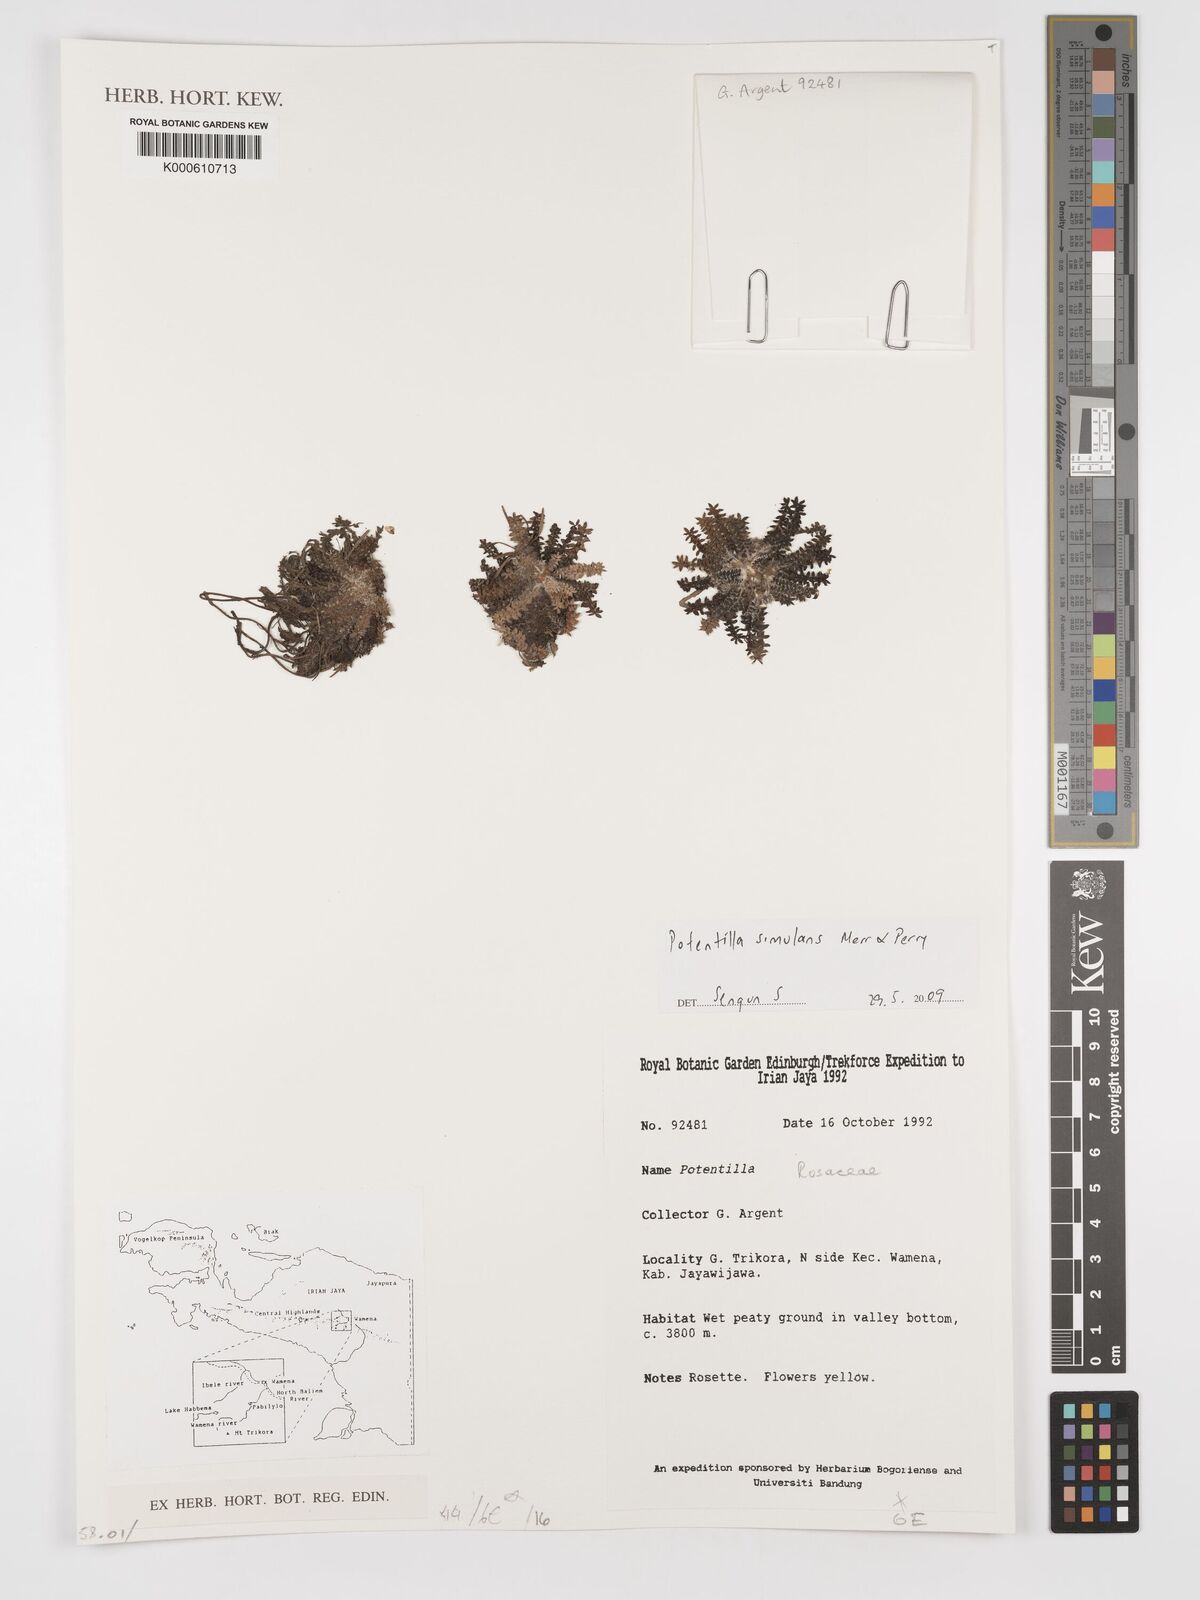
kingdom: Plantae
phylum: Tracheophyta
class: Magnoliopsida
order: Rosales
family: Rosaceae
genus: Argentina
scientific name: Argentina simulans
